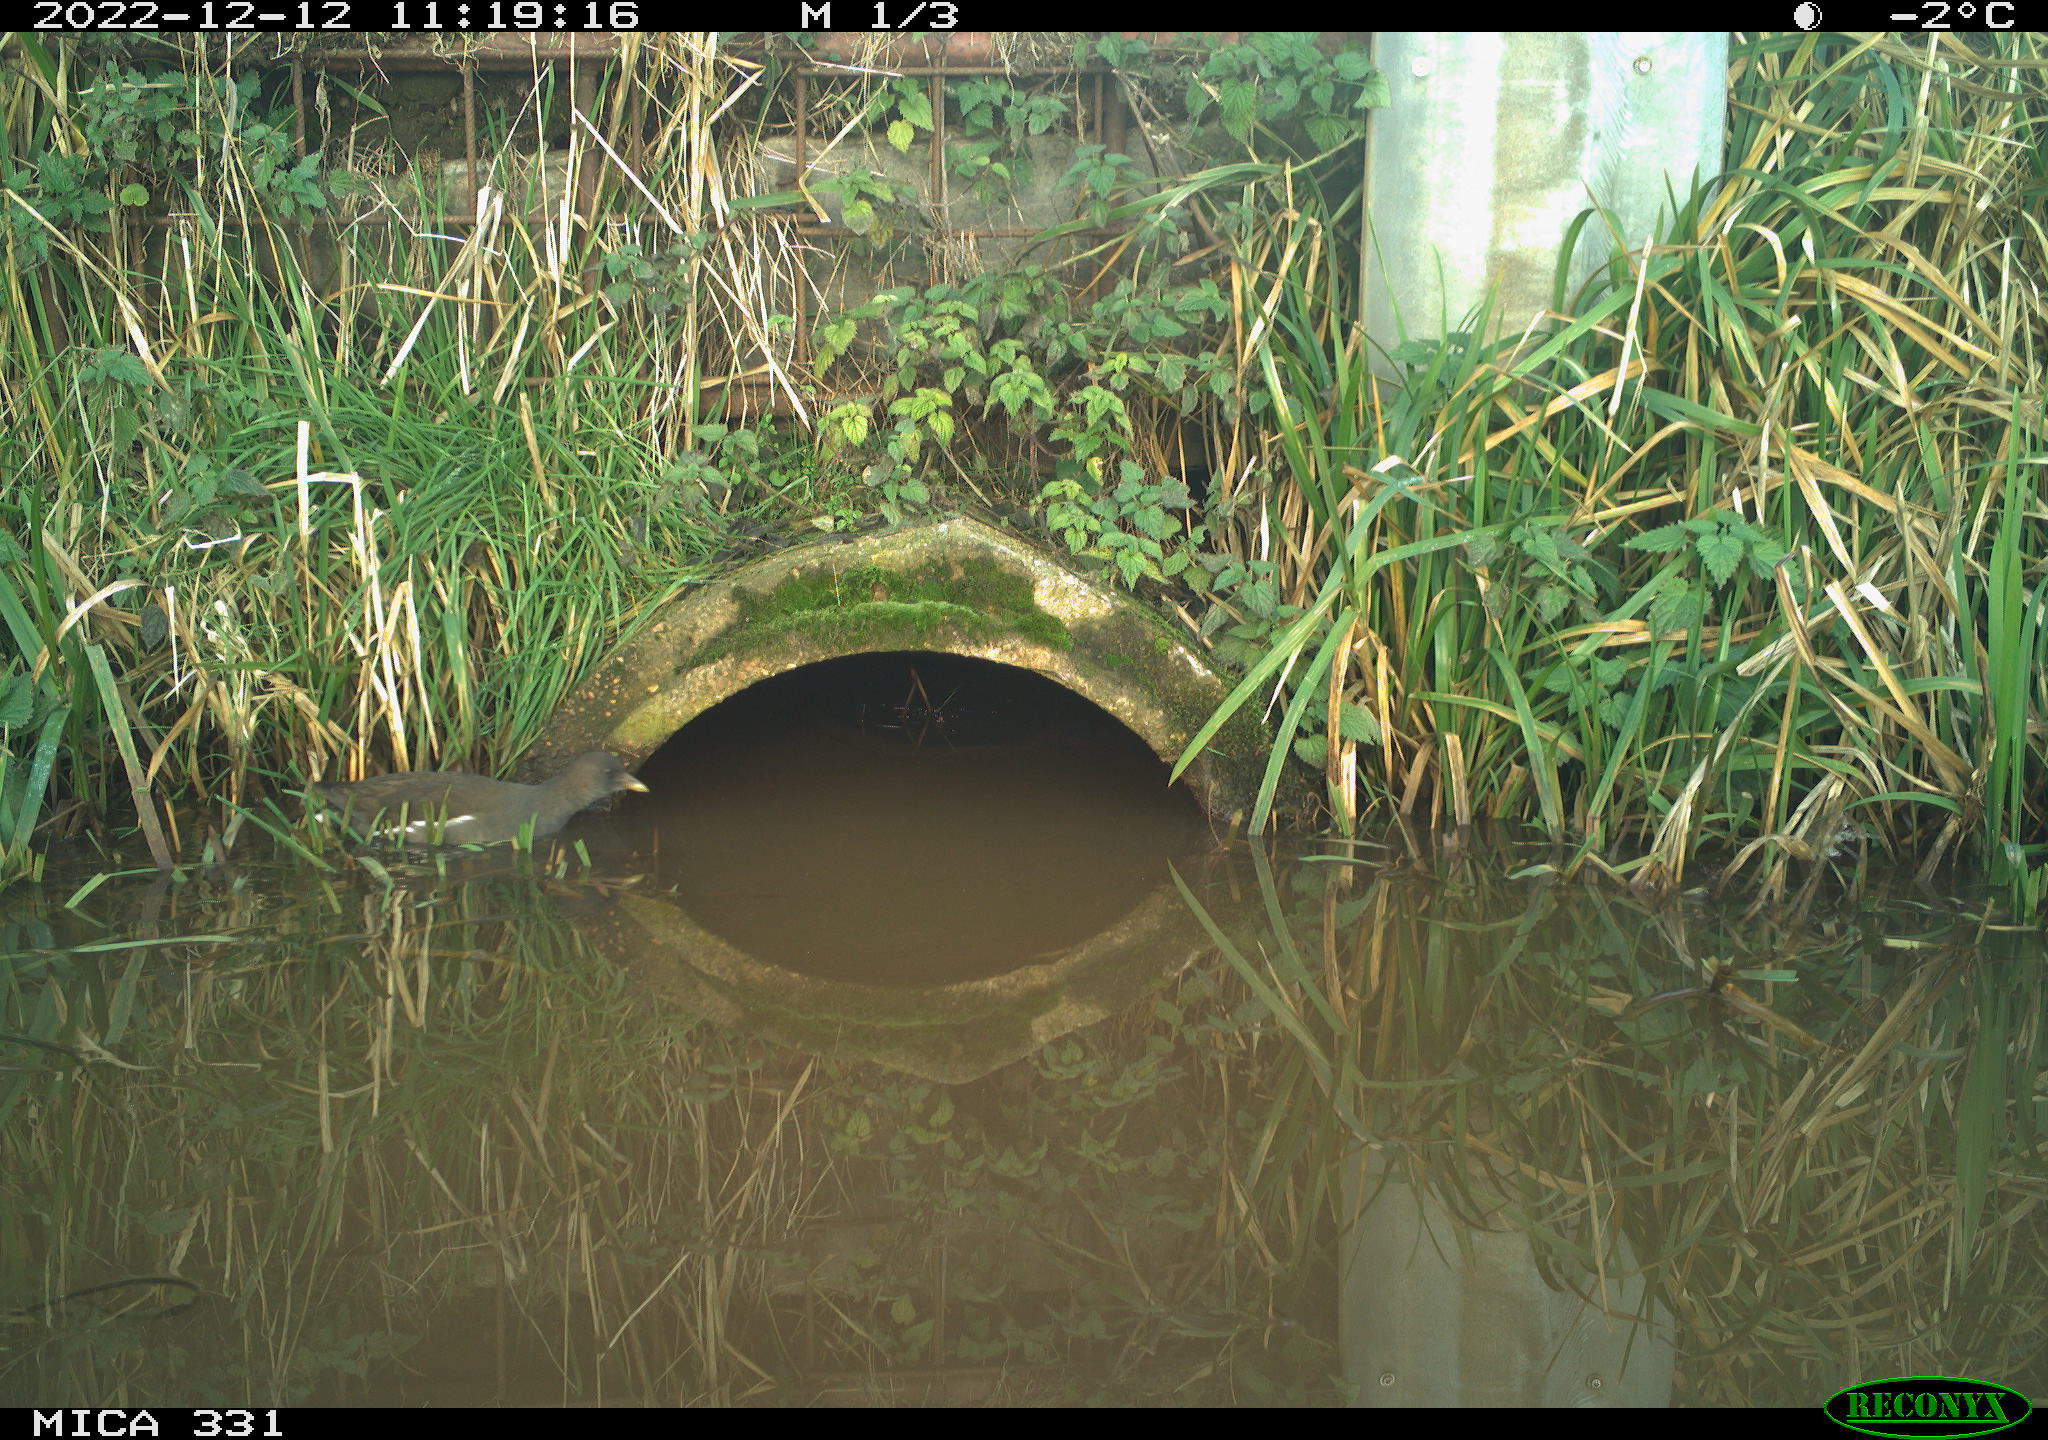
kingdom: Animalia
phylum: Chordata
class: Aves
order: Gruiformes
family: Rallidae
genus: Gallinula
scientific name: Gallinula chloropus
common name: Common moorhen
